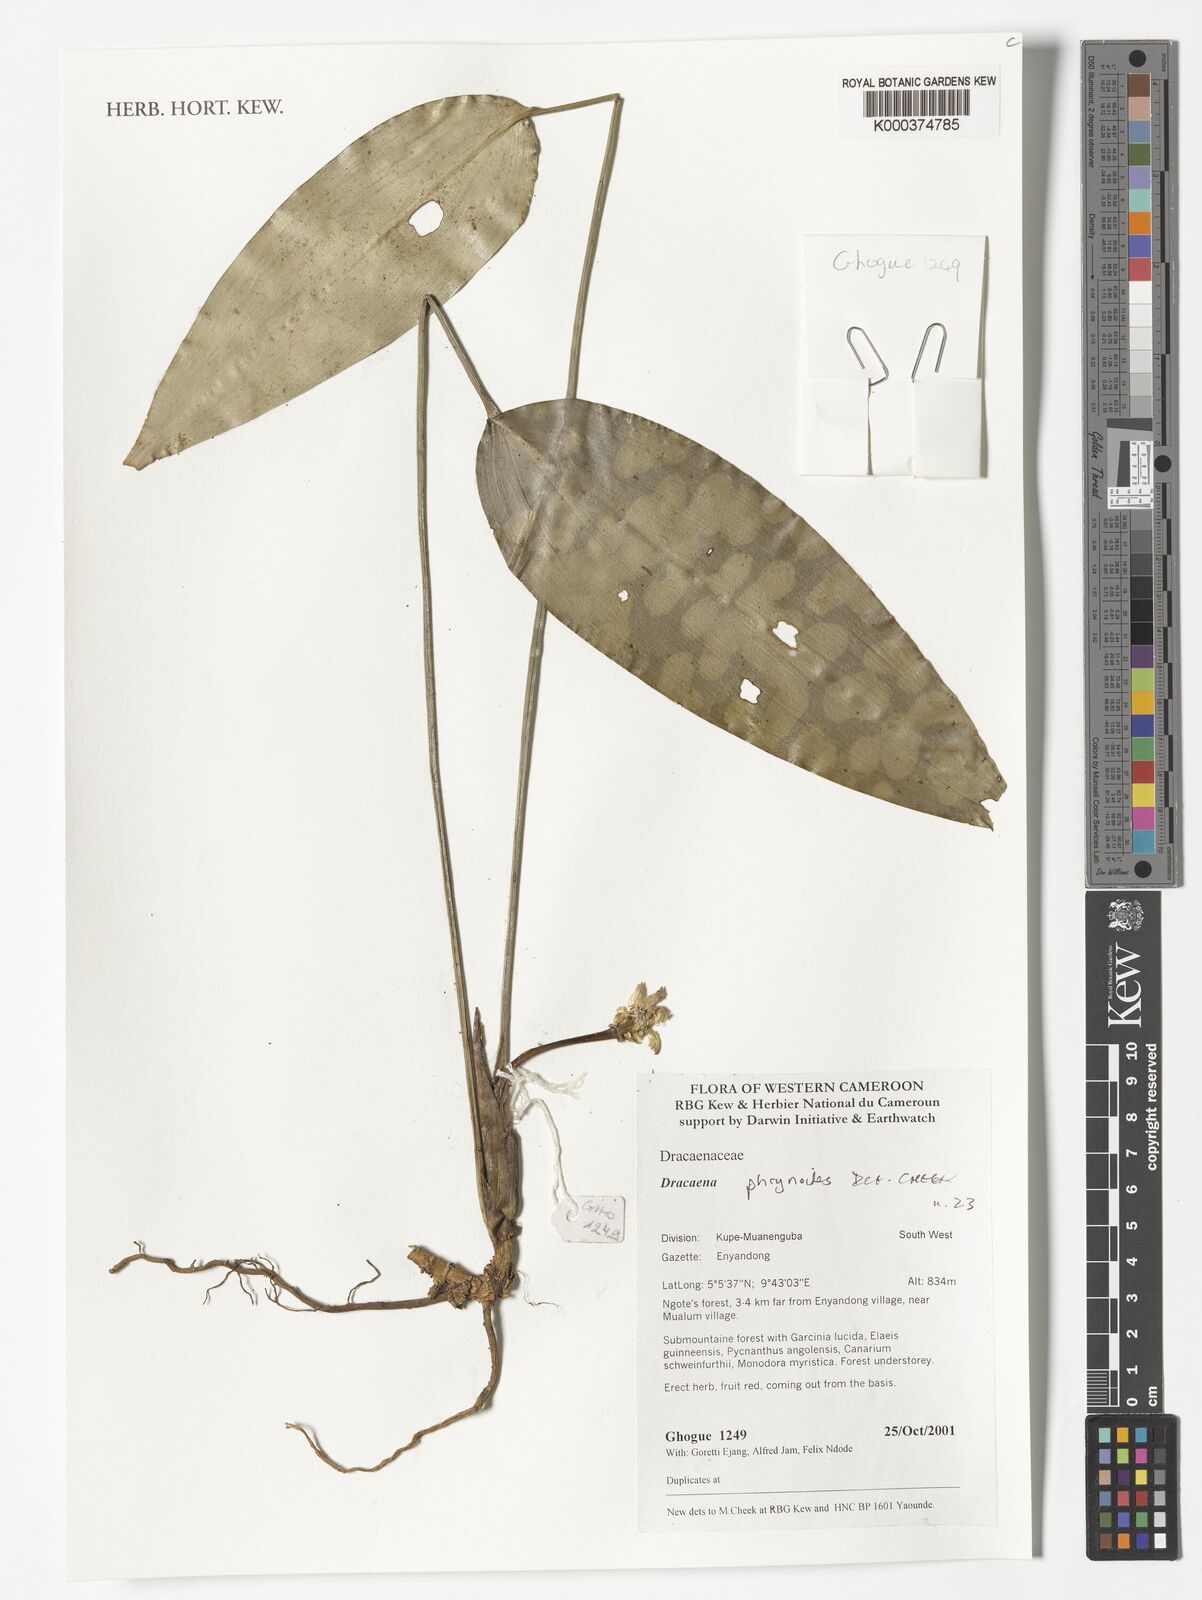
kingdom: Plantae
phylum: Tracheophyta
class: Liliopsida
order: Asparagales
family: Asparagaceae
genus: Dracaena
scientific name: Dracaena phrynioides
